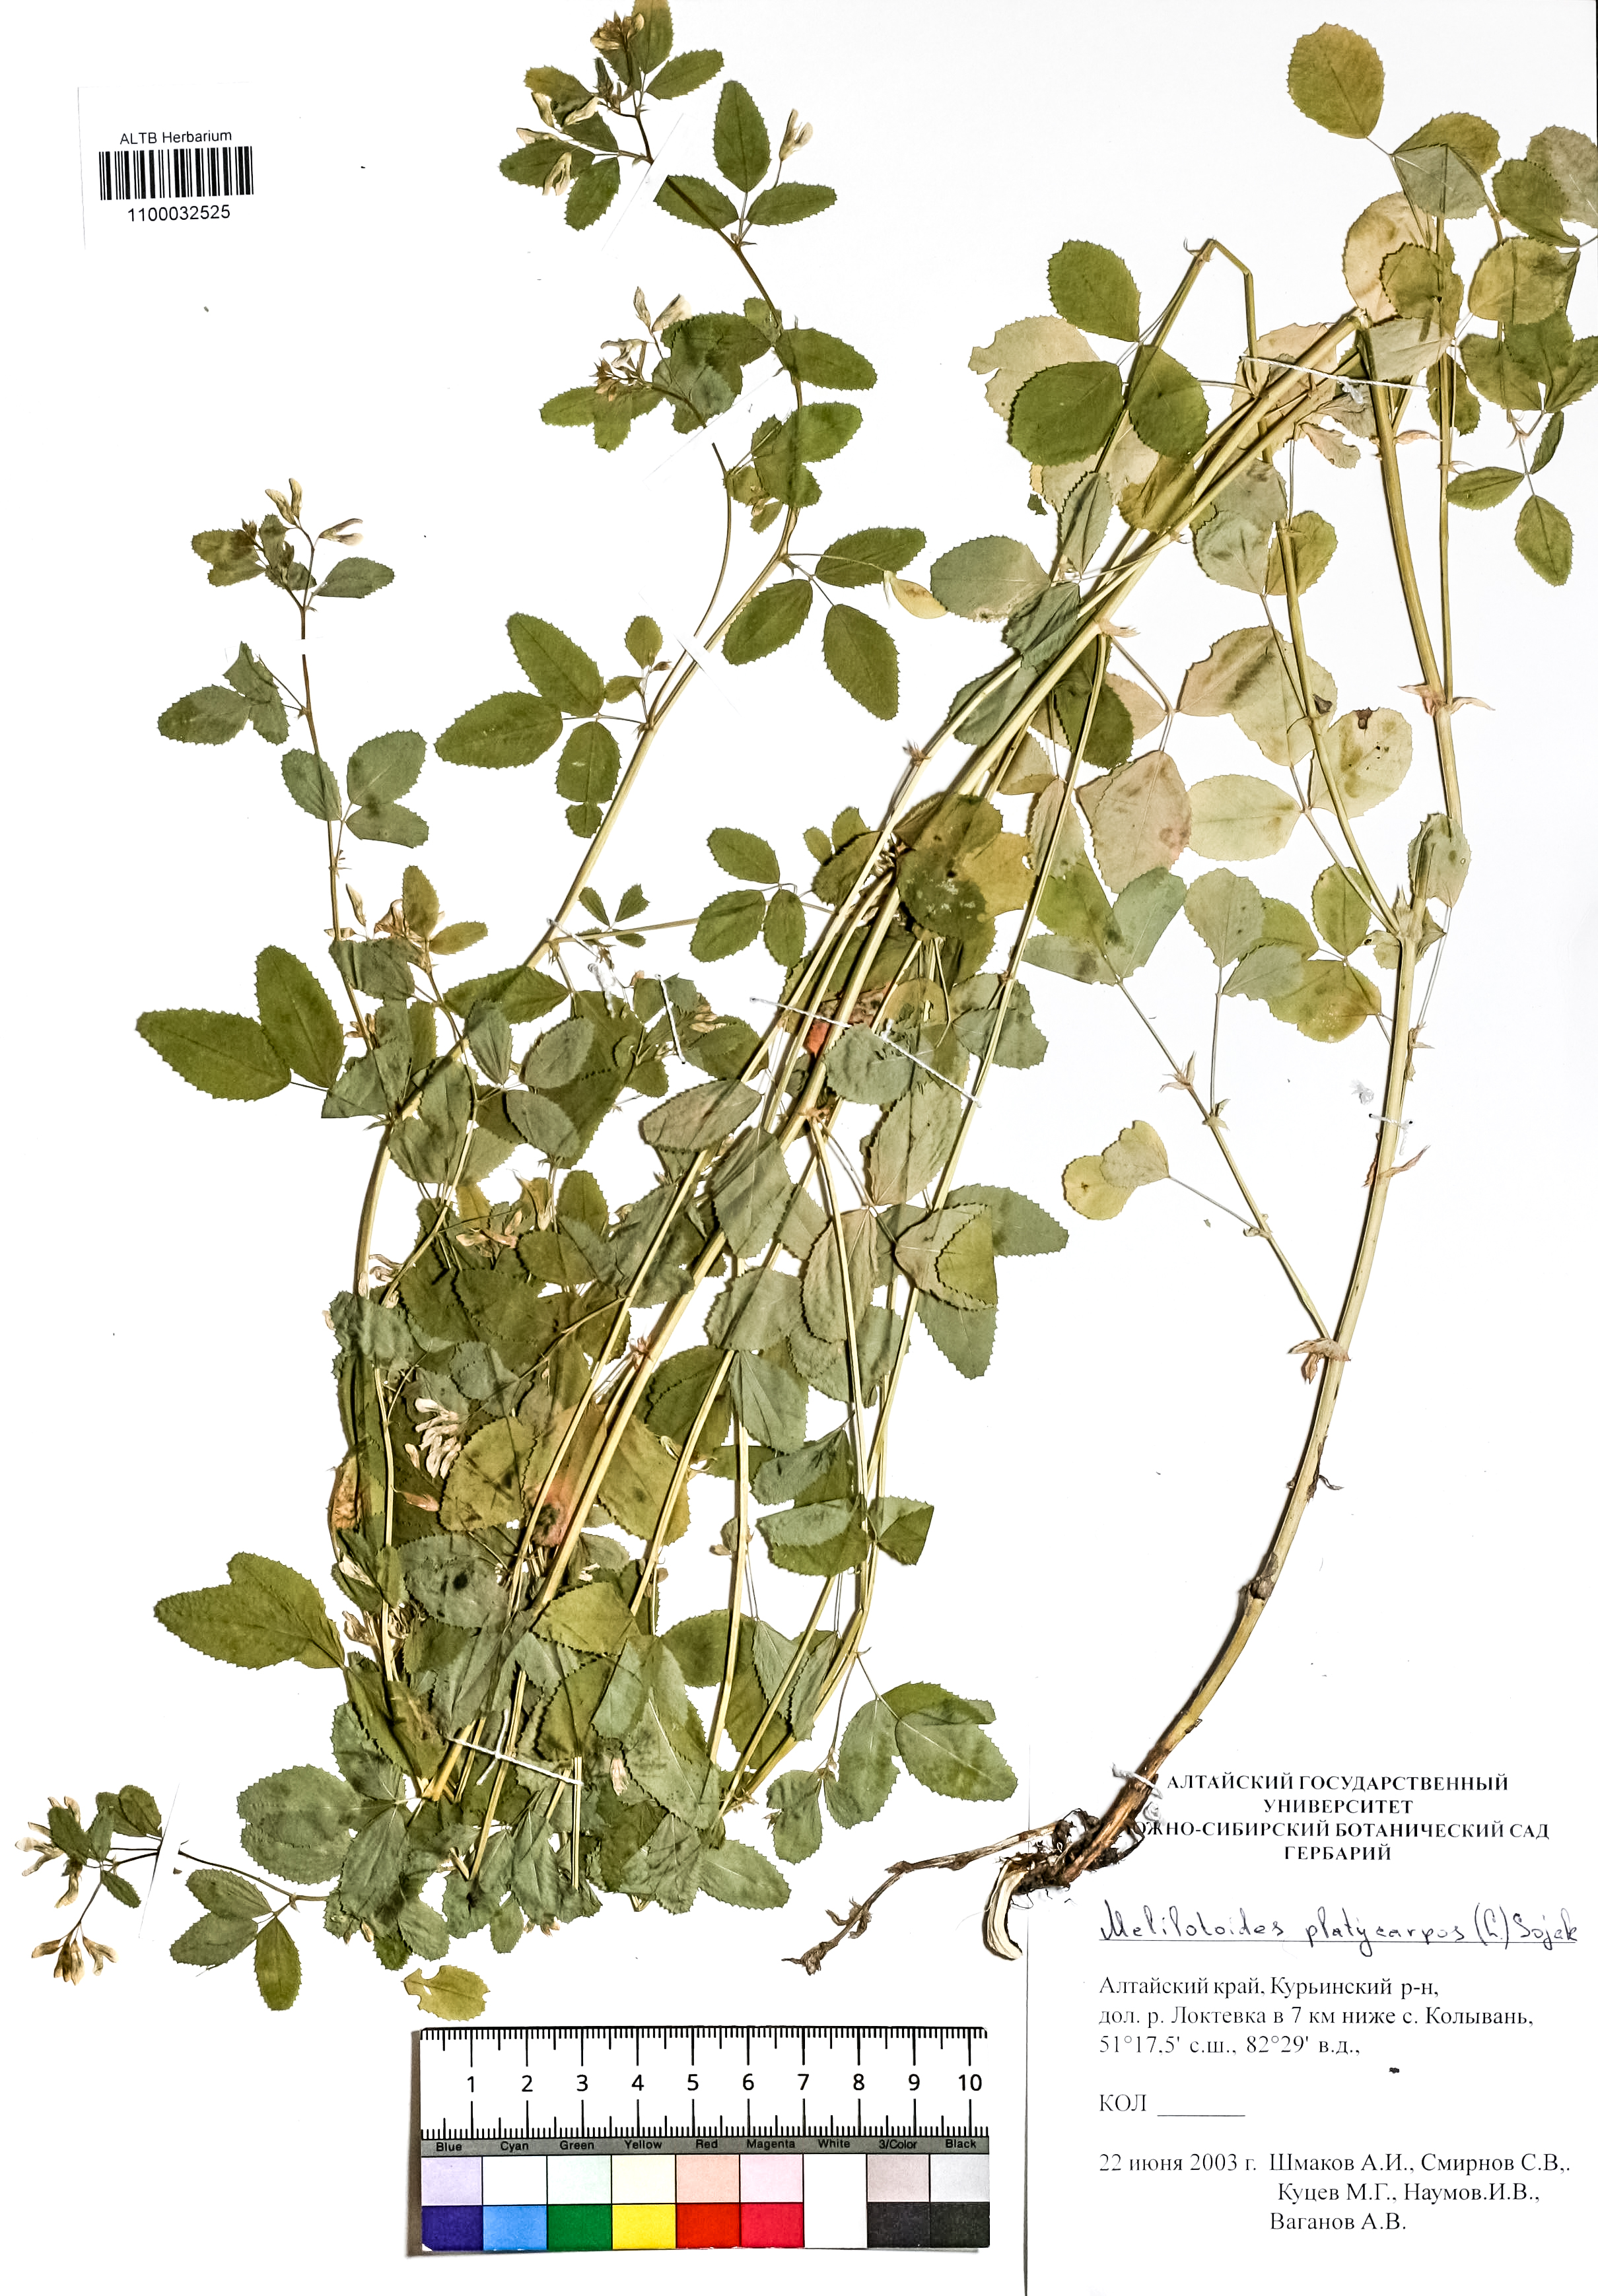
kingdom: Plantae
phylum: Tracheophyta
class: Magnoliopsida
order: Fabales
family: Fabaceae
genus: Medicago
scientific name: Medicago platycarpos
